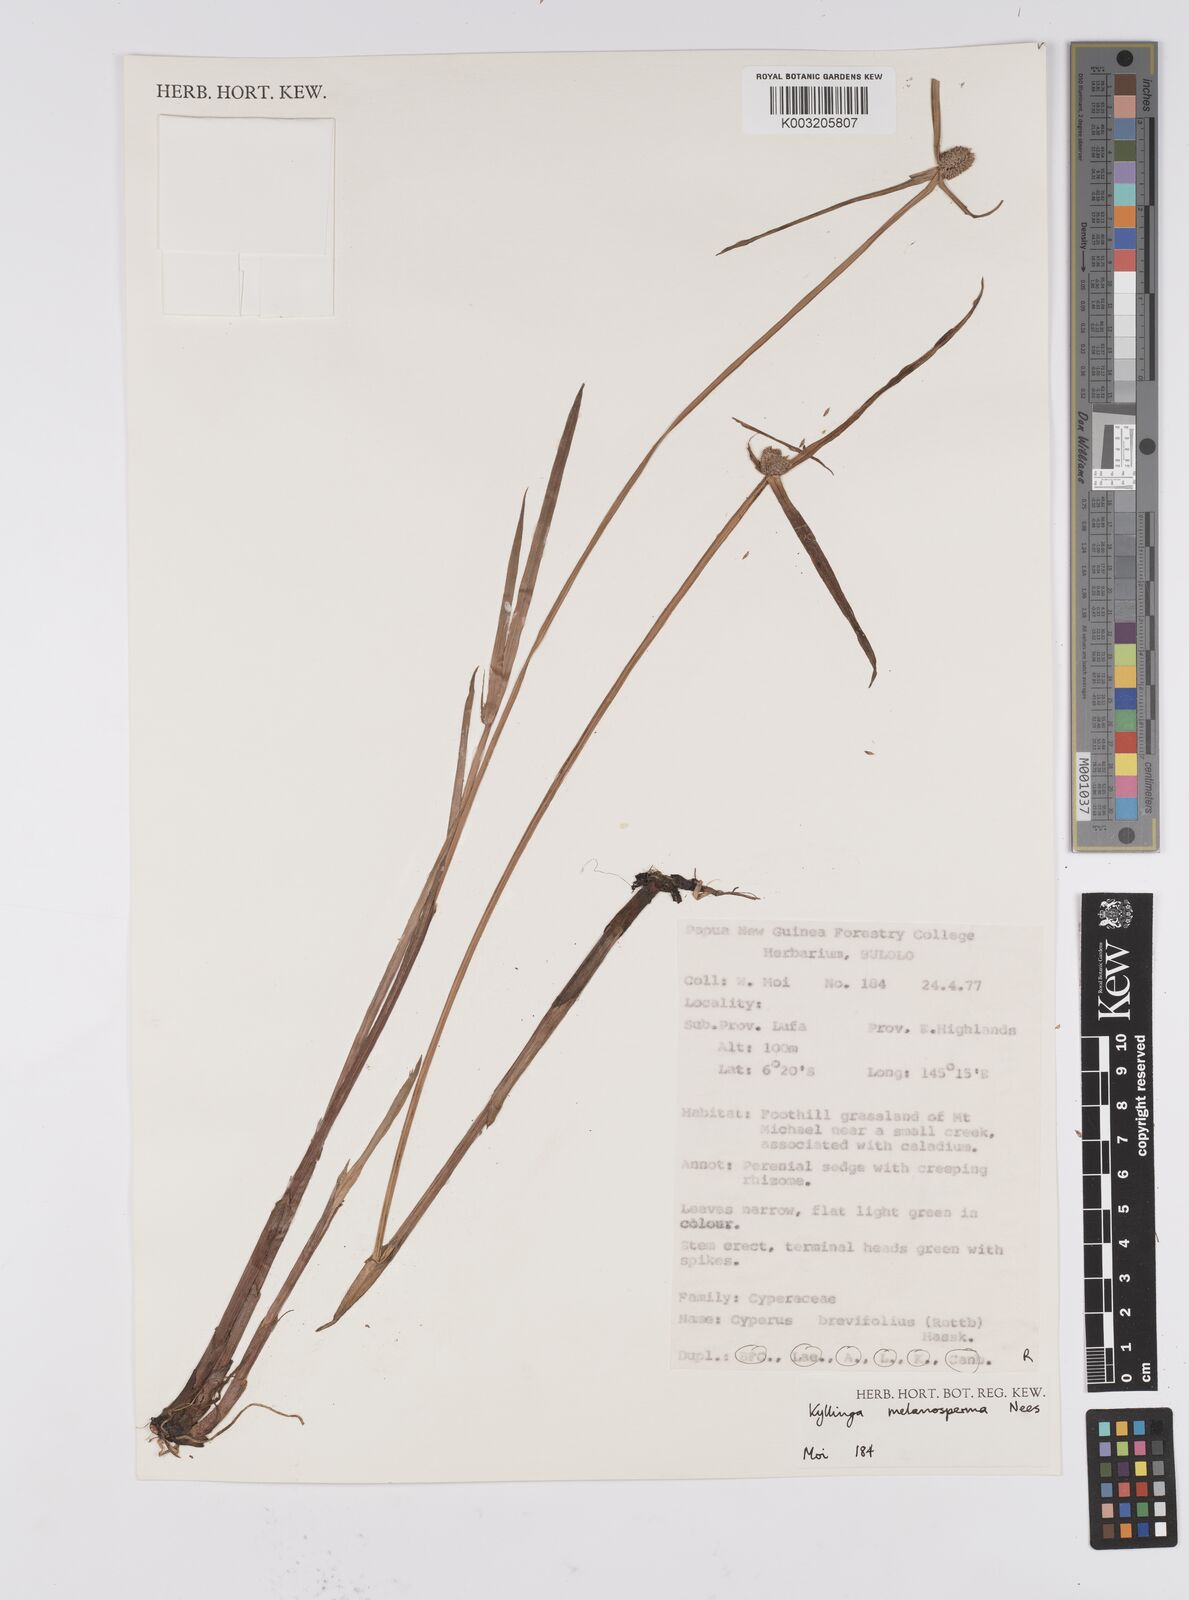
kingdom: Plantae
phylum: Tracheophyta
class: Liliopsida
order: Poales
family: Cyperaceae
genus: Cyperus
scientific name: Cyperus melanospermus
